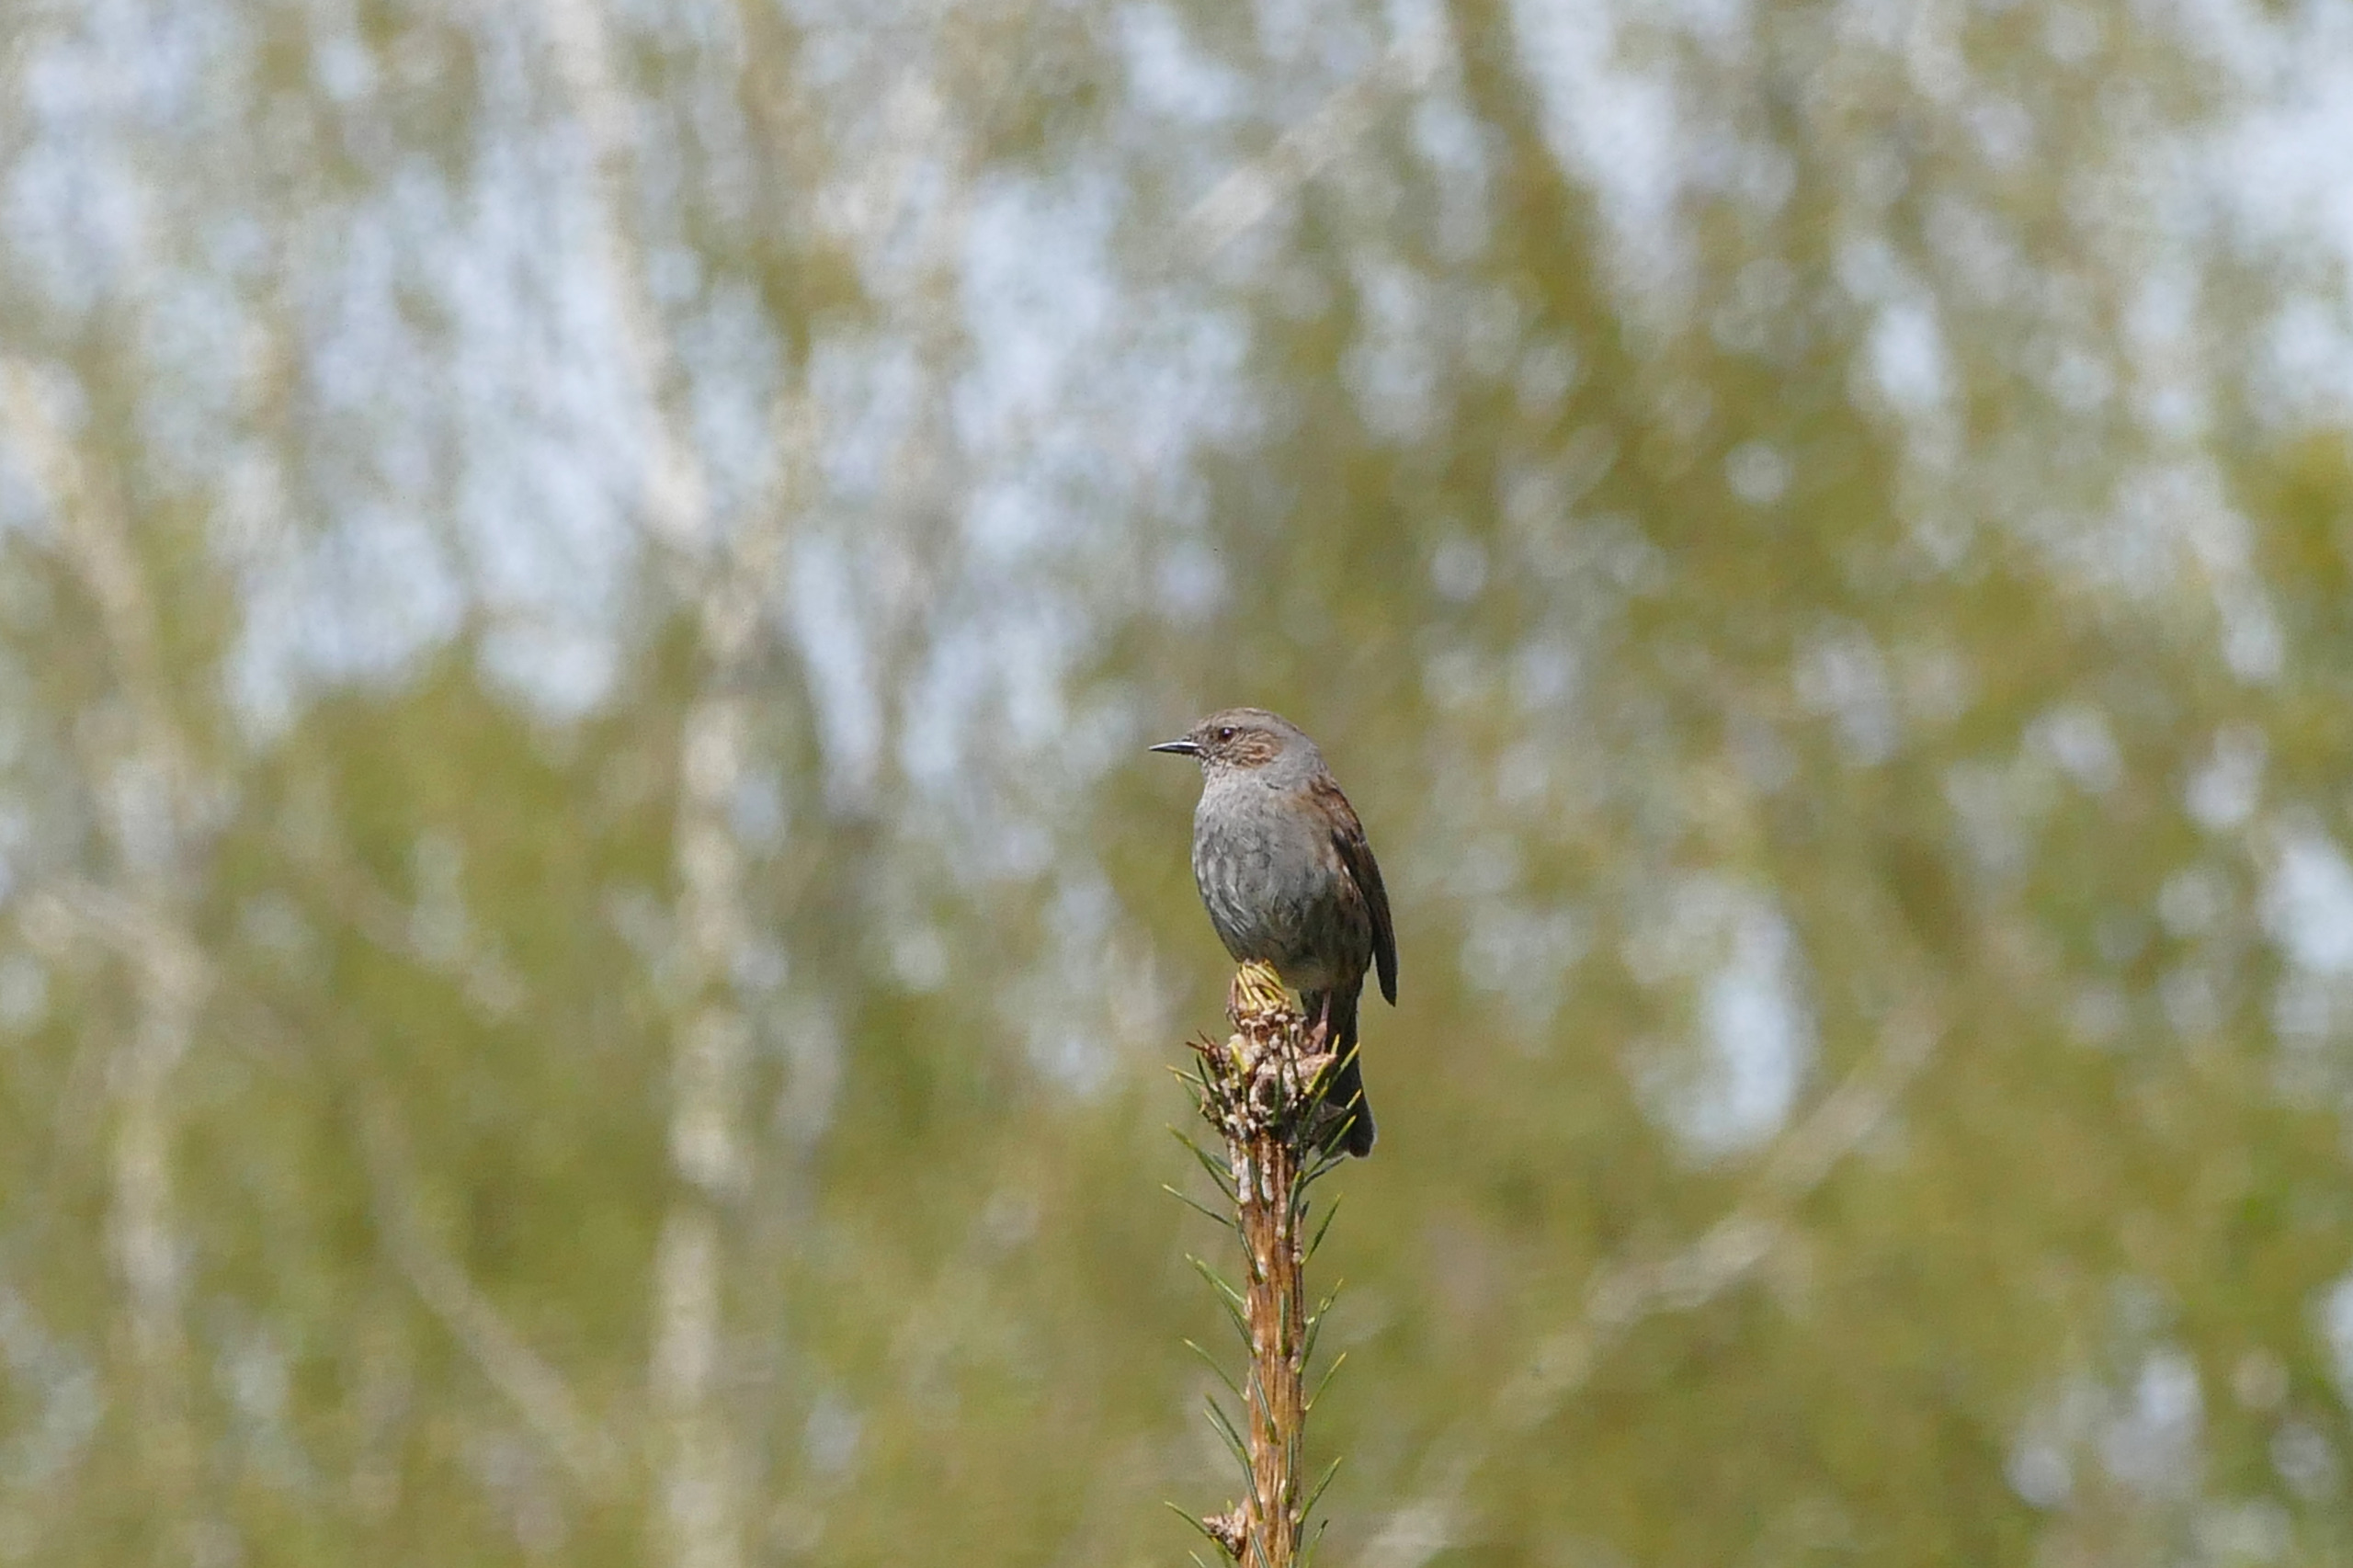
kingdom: Animalia
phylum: Chordata
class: Aves
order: Passeriformes
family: Prunellidae
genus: Prunella
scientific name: Prunella modularis
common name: Jernspurv
